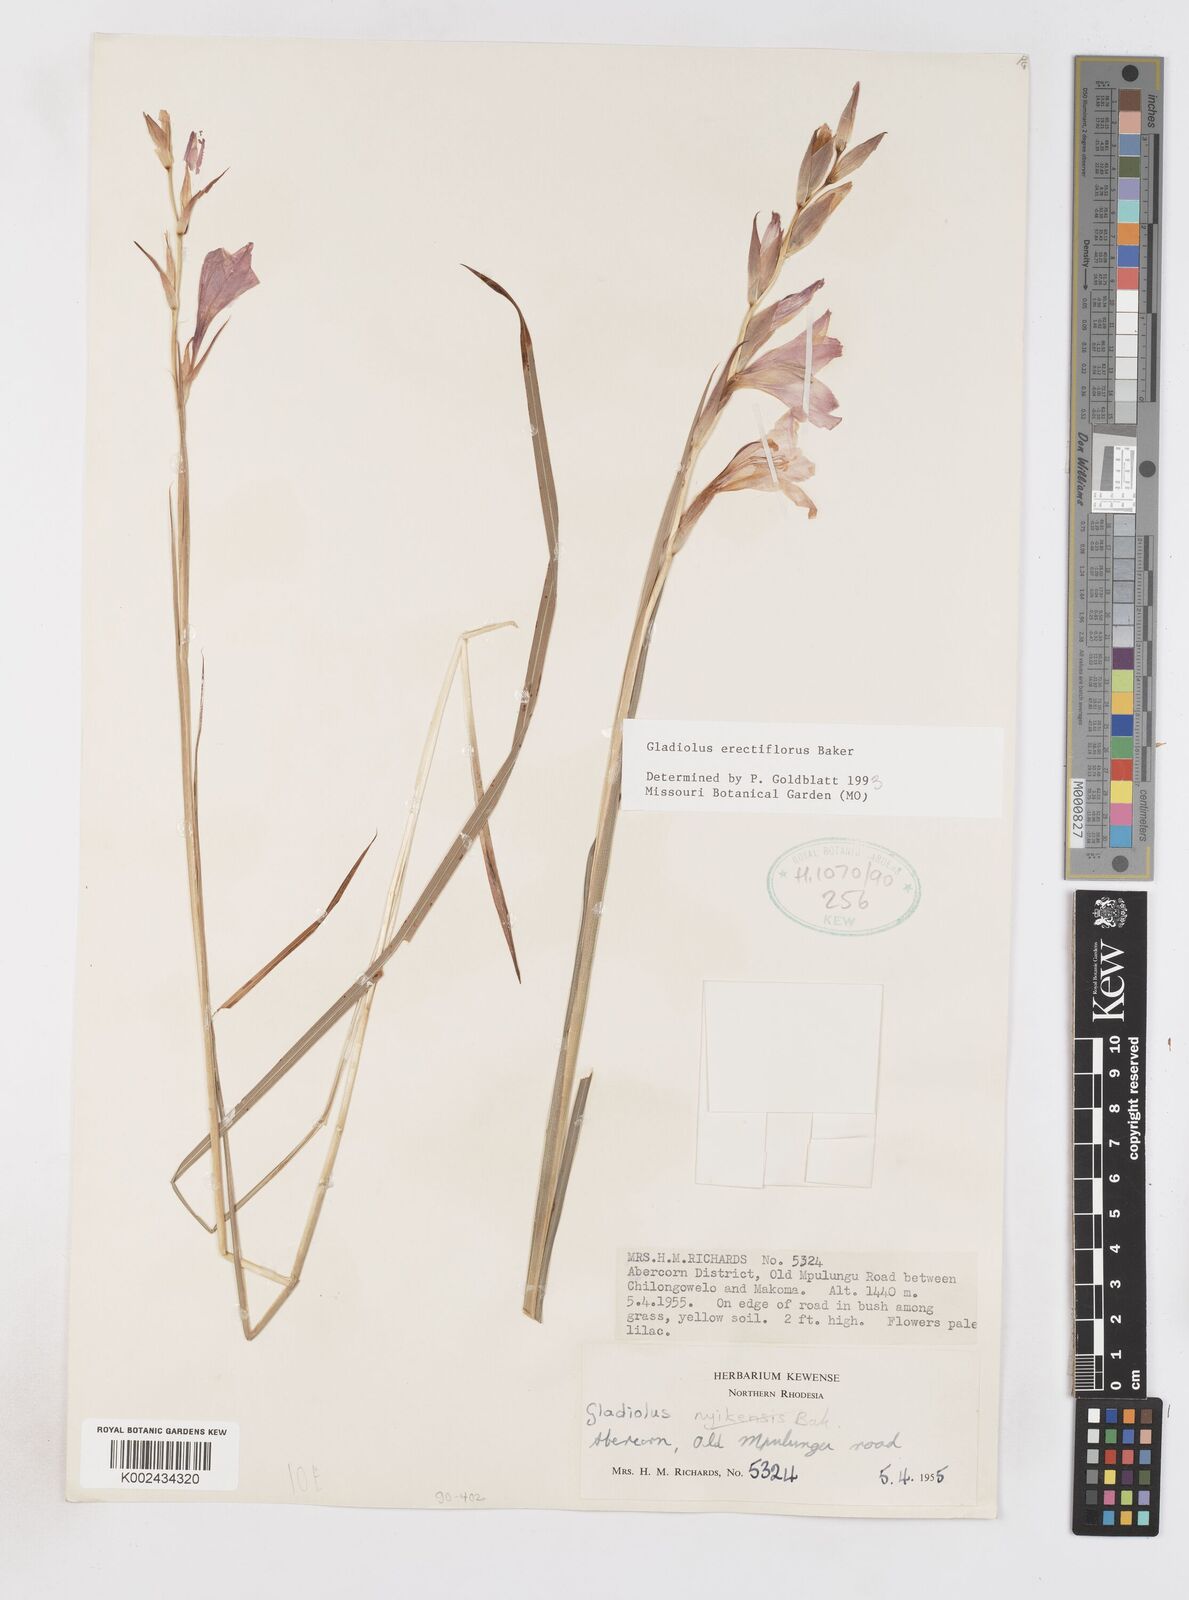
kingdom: Plantae
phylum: Tracheophyta
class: Liliopsida
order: Asparagales
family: Iridaceae
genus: Gladiolus
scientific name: Gladiolus erectiflorus
